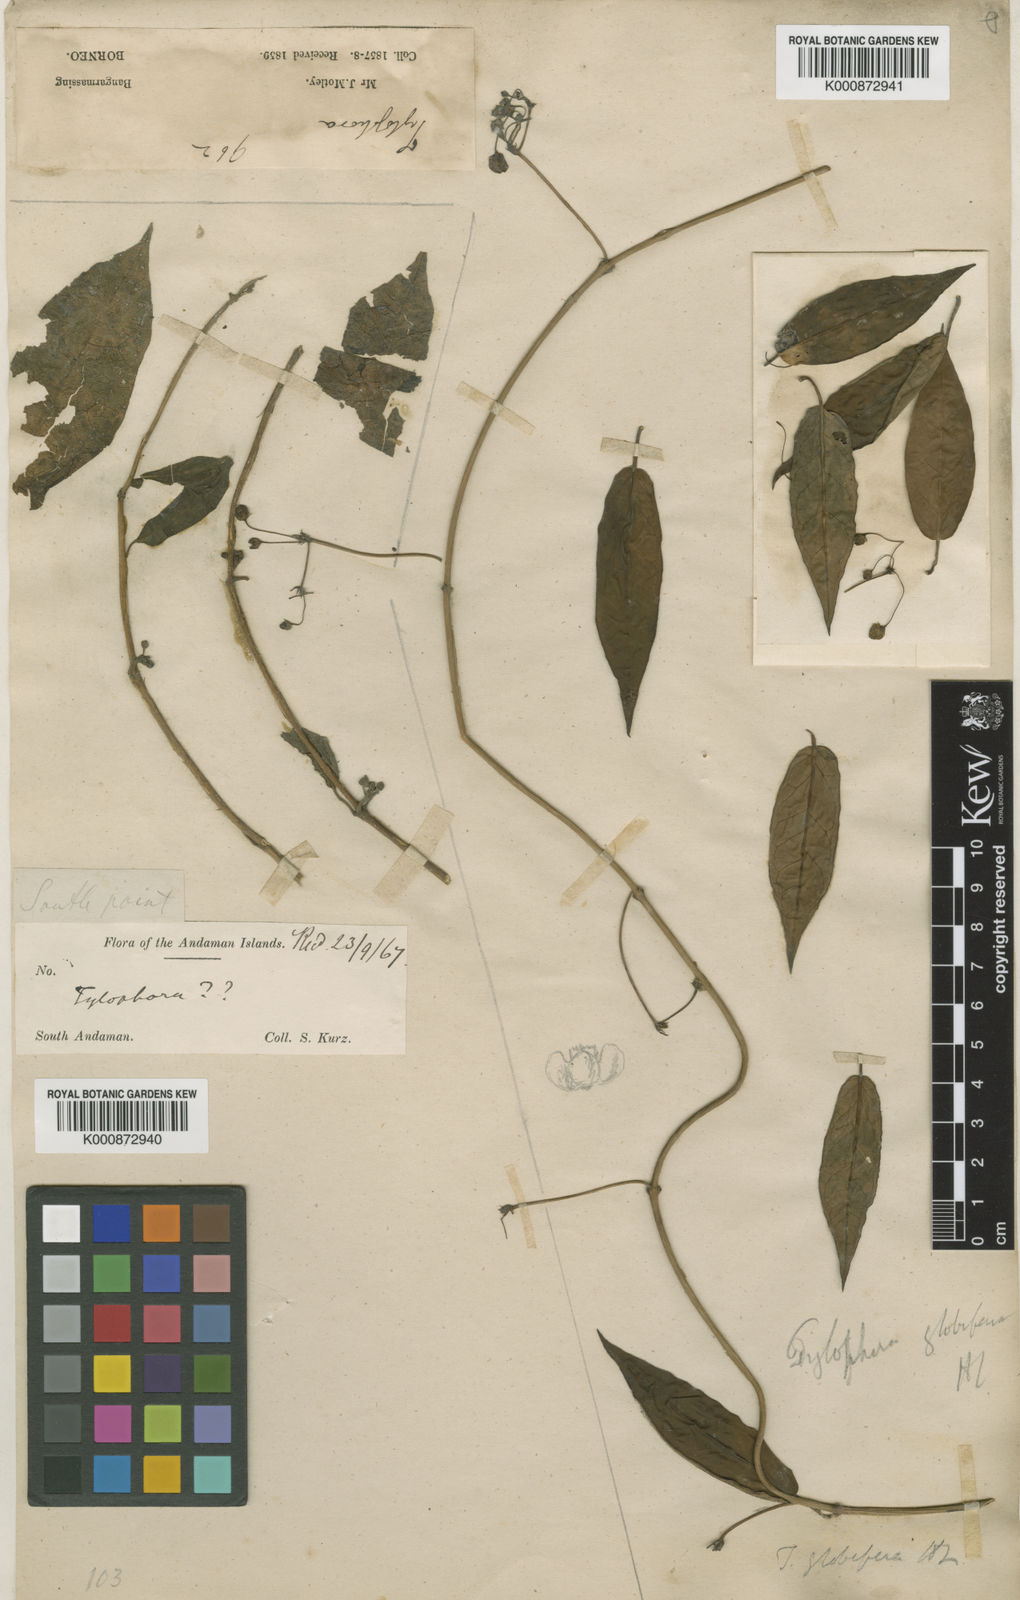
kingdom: Plantae
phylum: Tracheophyta
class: Magnoliopsida
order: Gentianales
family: Apocynaceae
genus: Vincetoxicum
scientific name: Vincetoxicum globiferum
